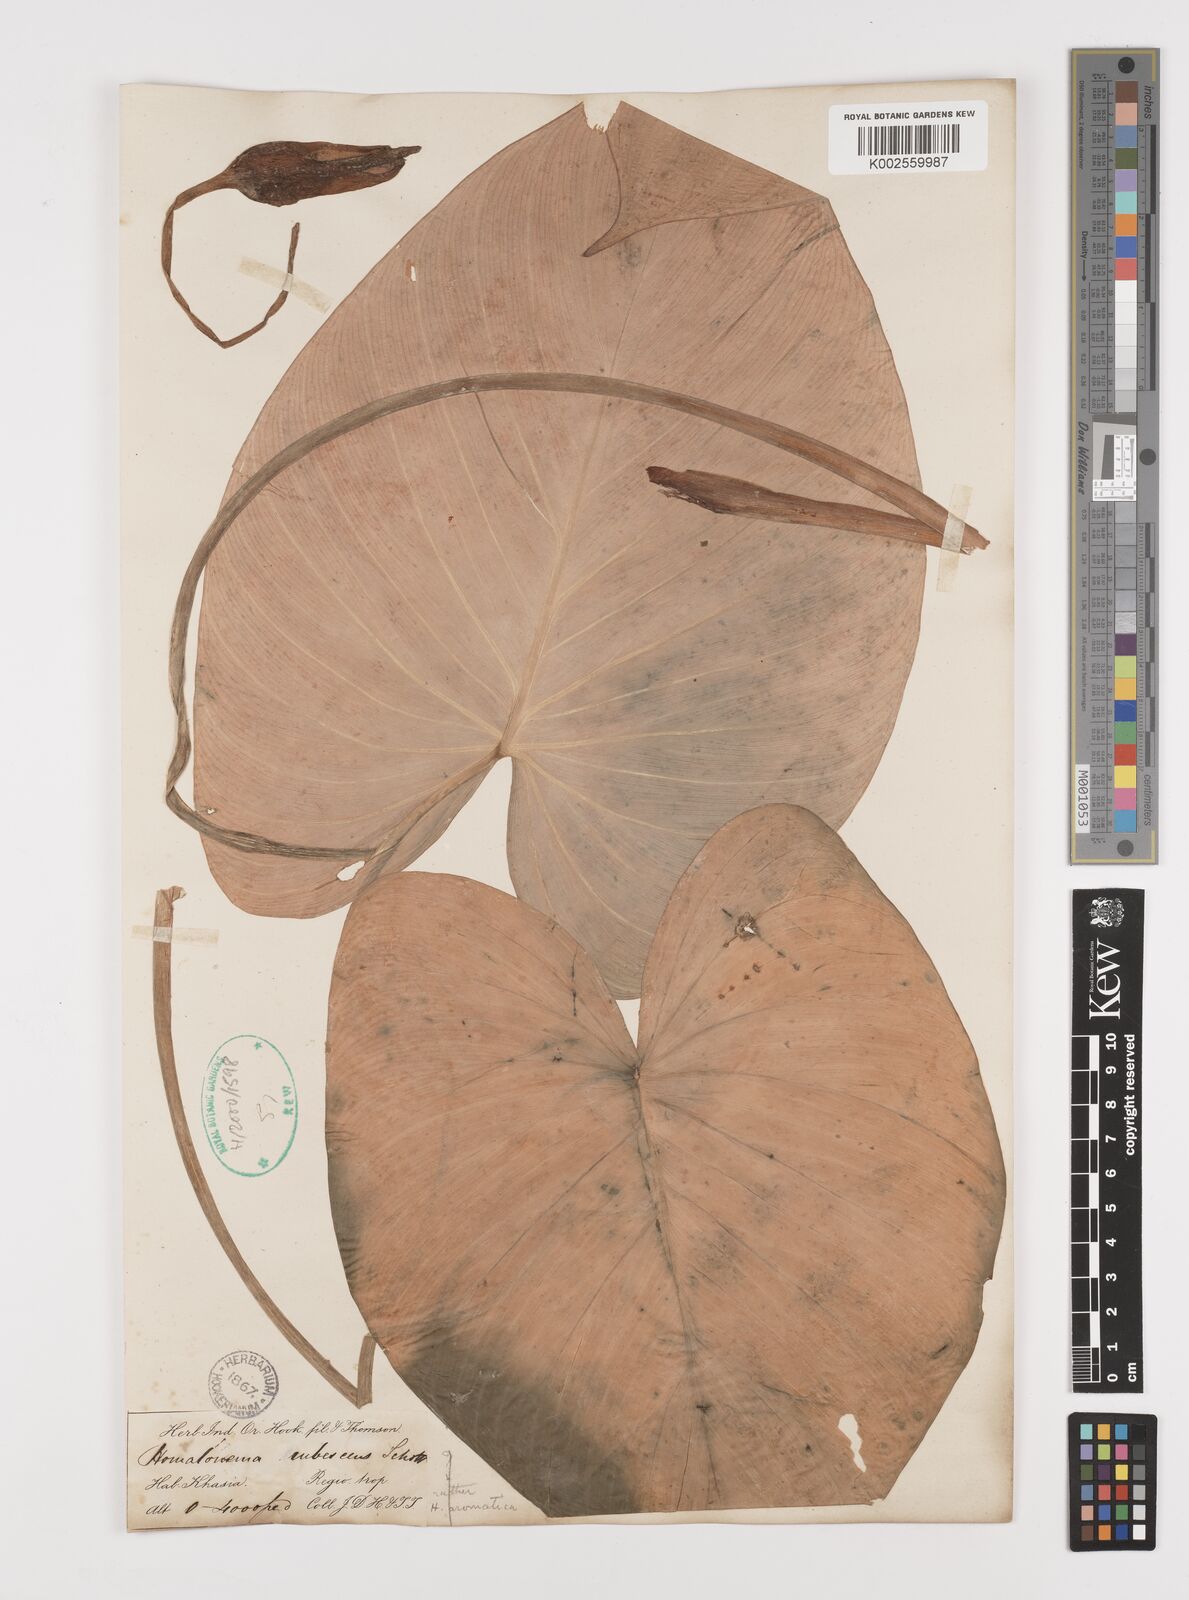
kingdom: Plantae
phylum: Tracheophyta
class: Liliopsida
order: Alismatales
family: Araceae
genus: Homalomena
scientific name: Homalomena rubescens
